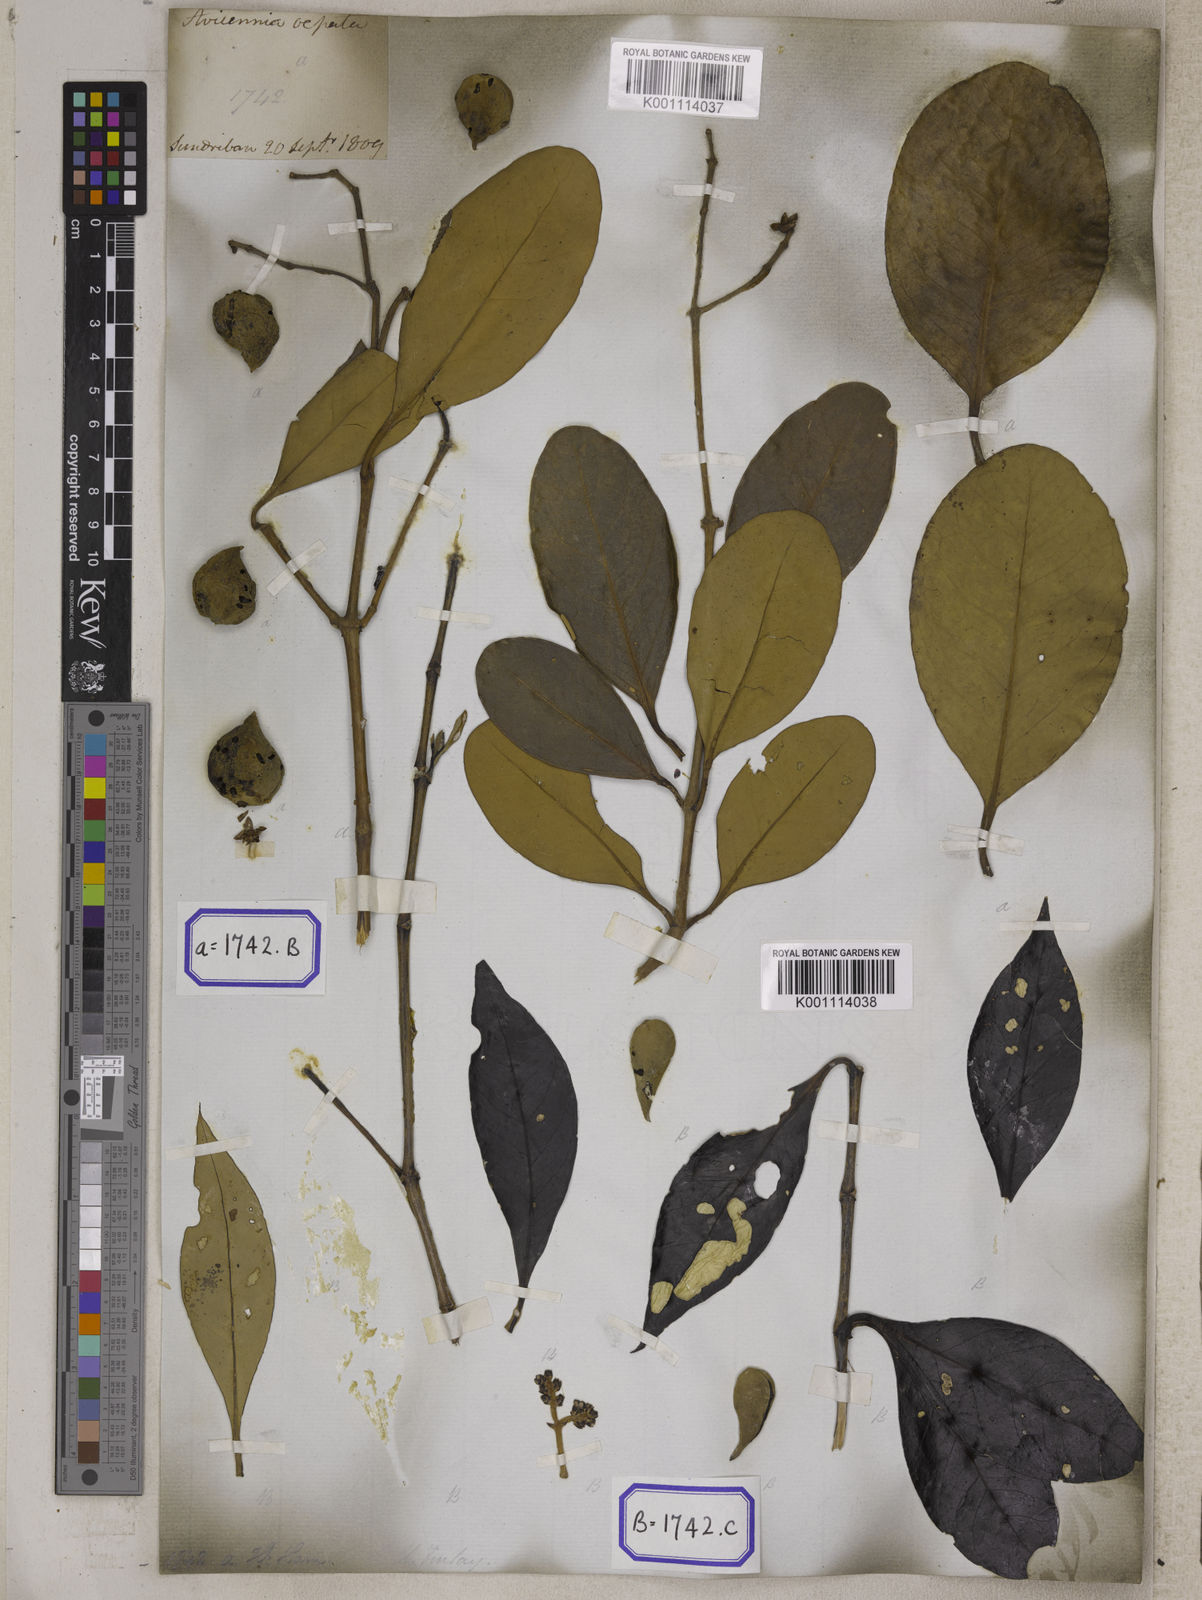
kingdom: Plantae
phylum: Tracheophyta
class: Magnoliopsida
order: Lamiales
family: Acanthaceae
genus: Avicennia
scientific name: Avicennia germinans
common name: Black mangrove
